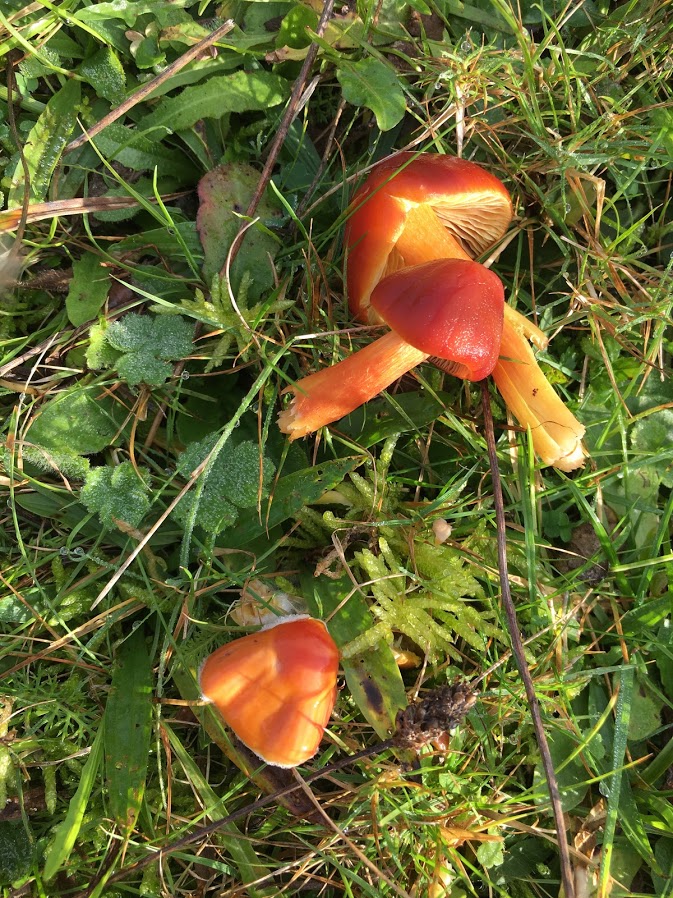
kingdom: Fungi
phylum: Basidiomycota
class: Agaricomycetes
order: Agaricales
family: Hygrophoraceae
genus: Hygrocybe
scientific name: Hygrocybe punicea
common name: skarlagen-vokshat
